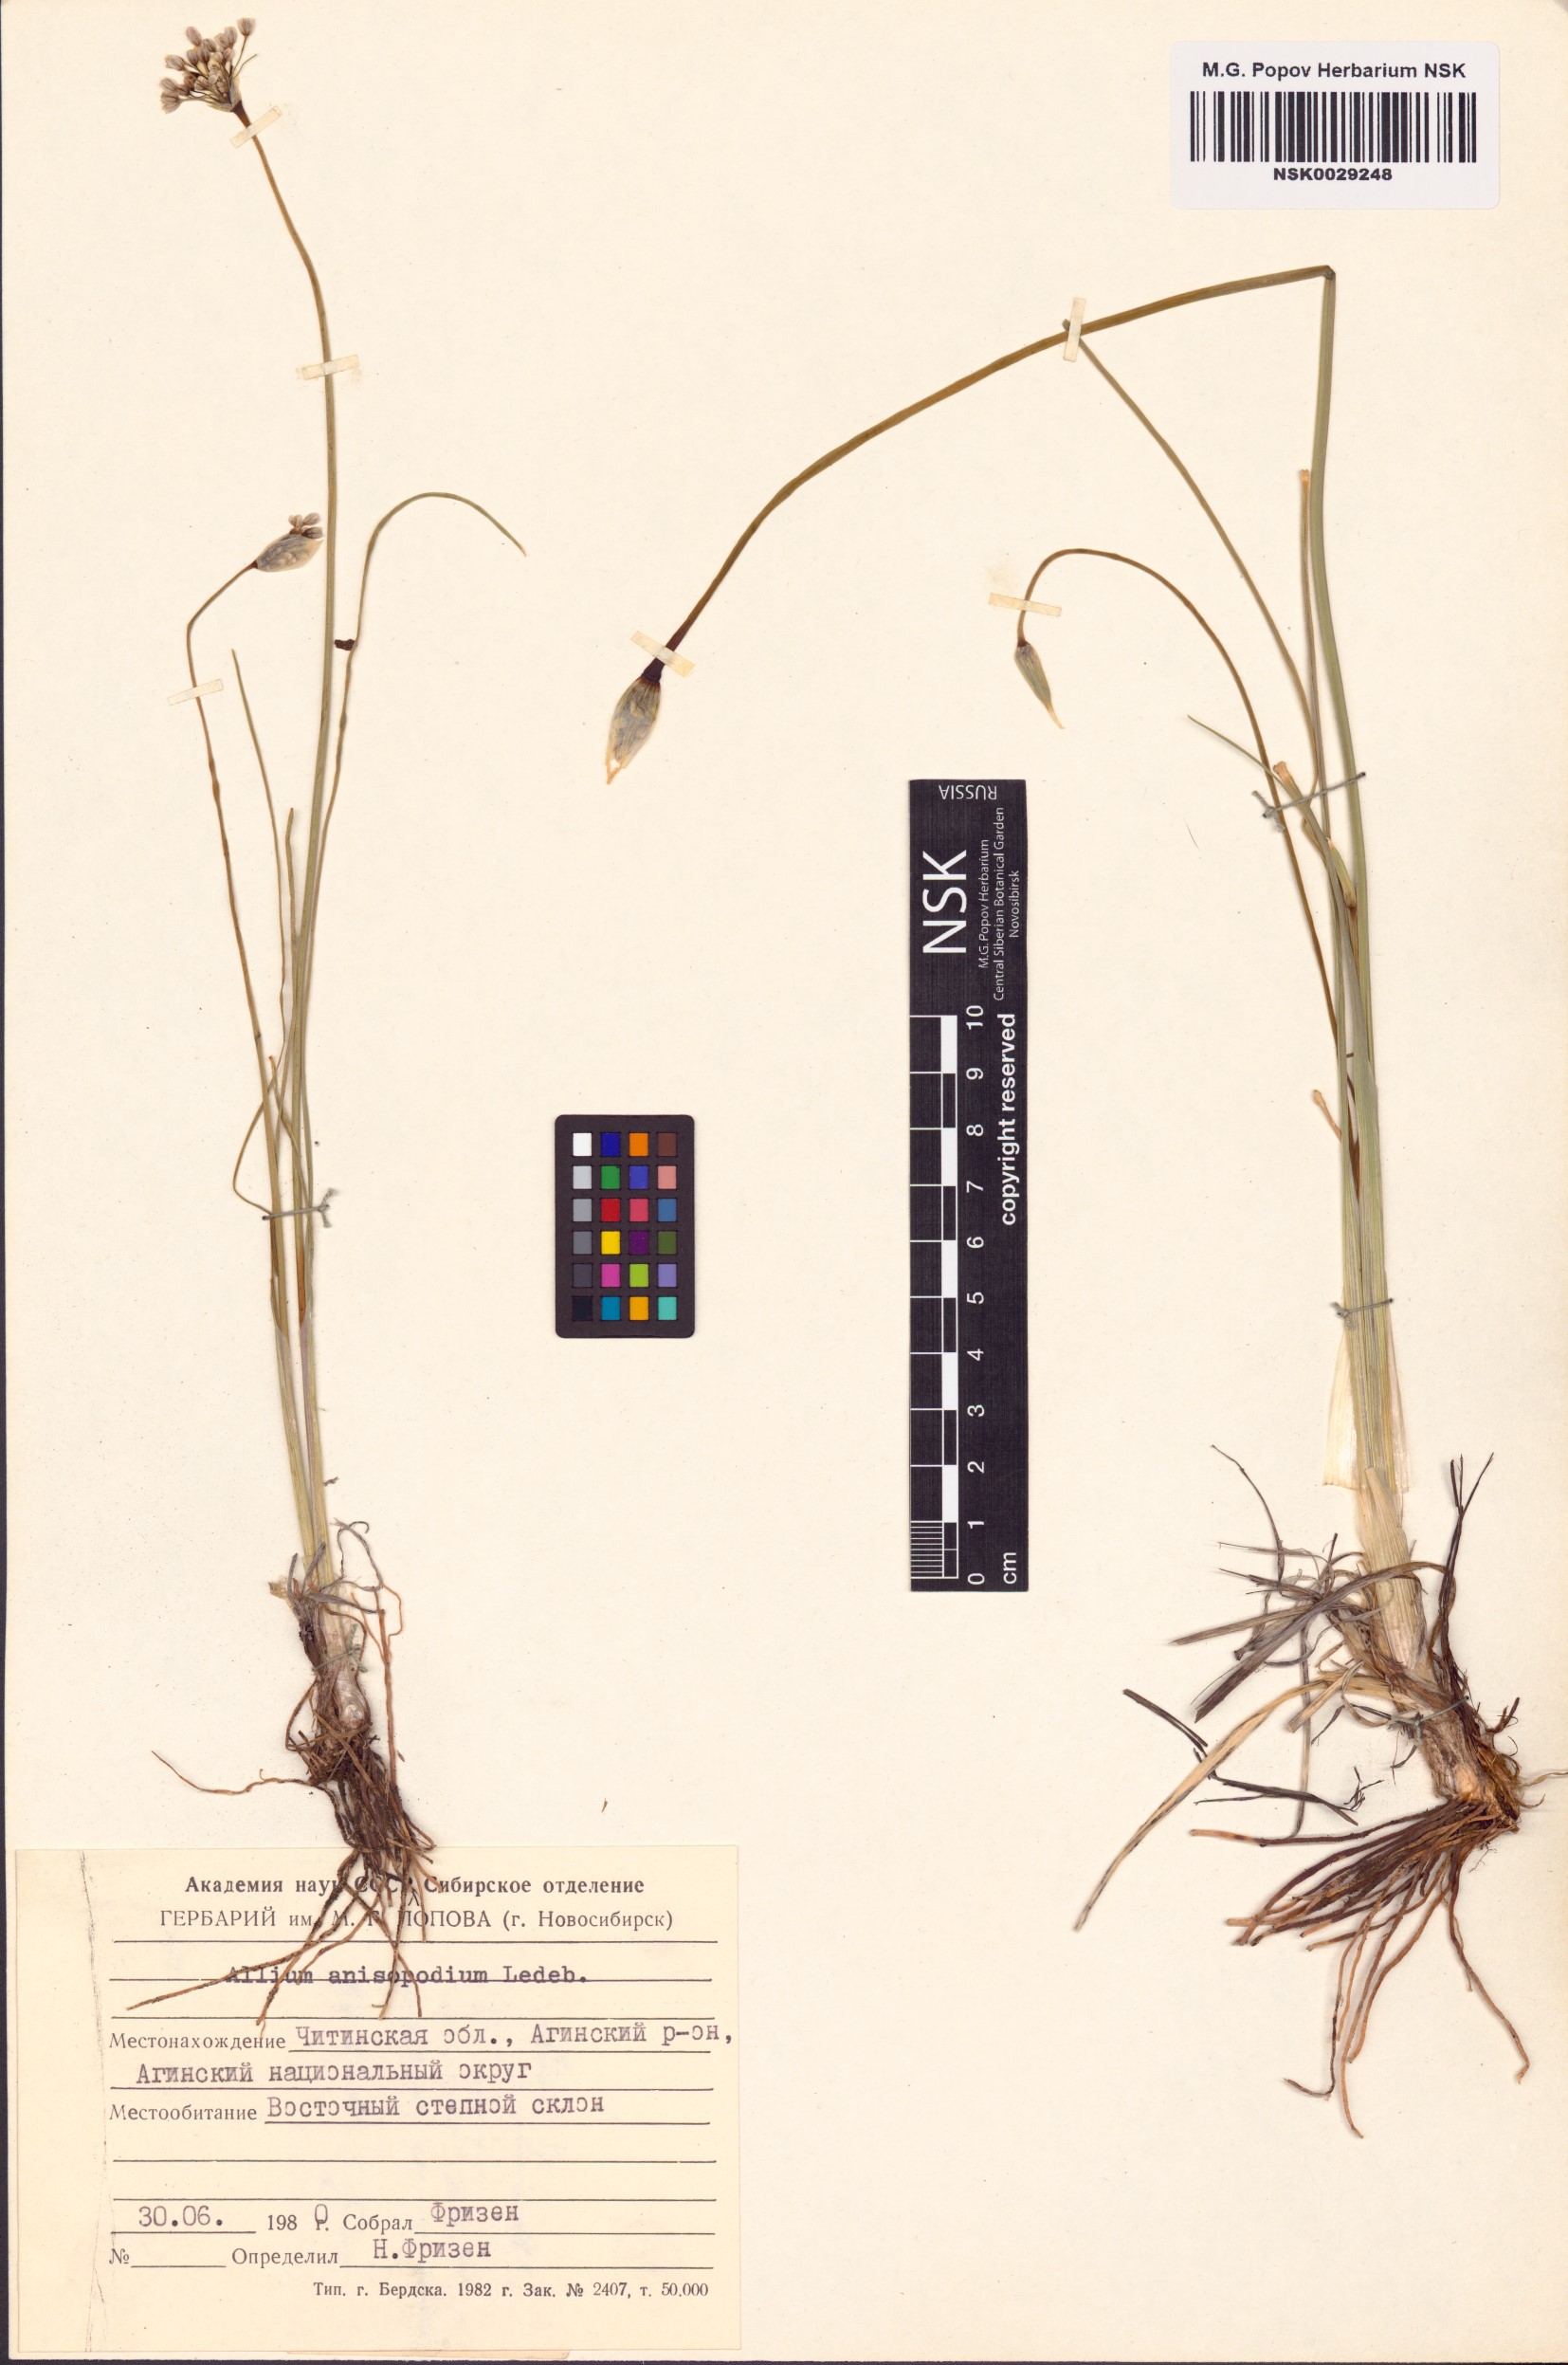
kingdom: Plantae
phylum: Tracheophyta
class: Liliopsida
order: Asparagales
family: Amaryllidaceae
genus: Allium
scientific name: Allium anisopodium
